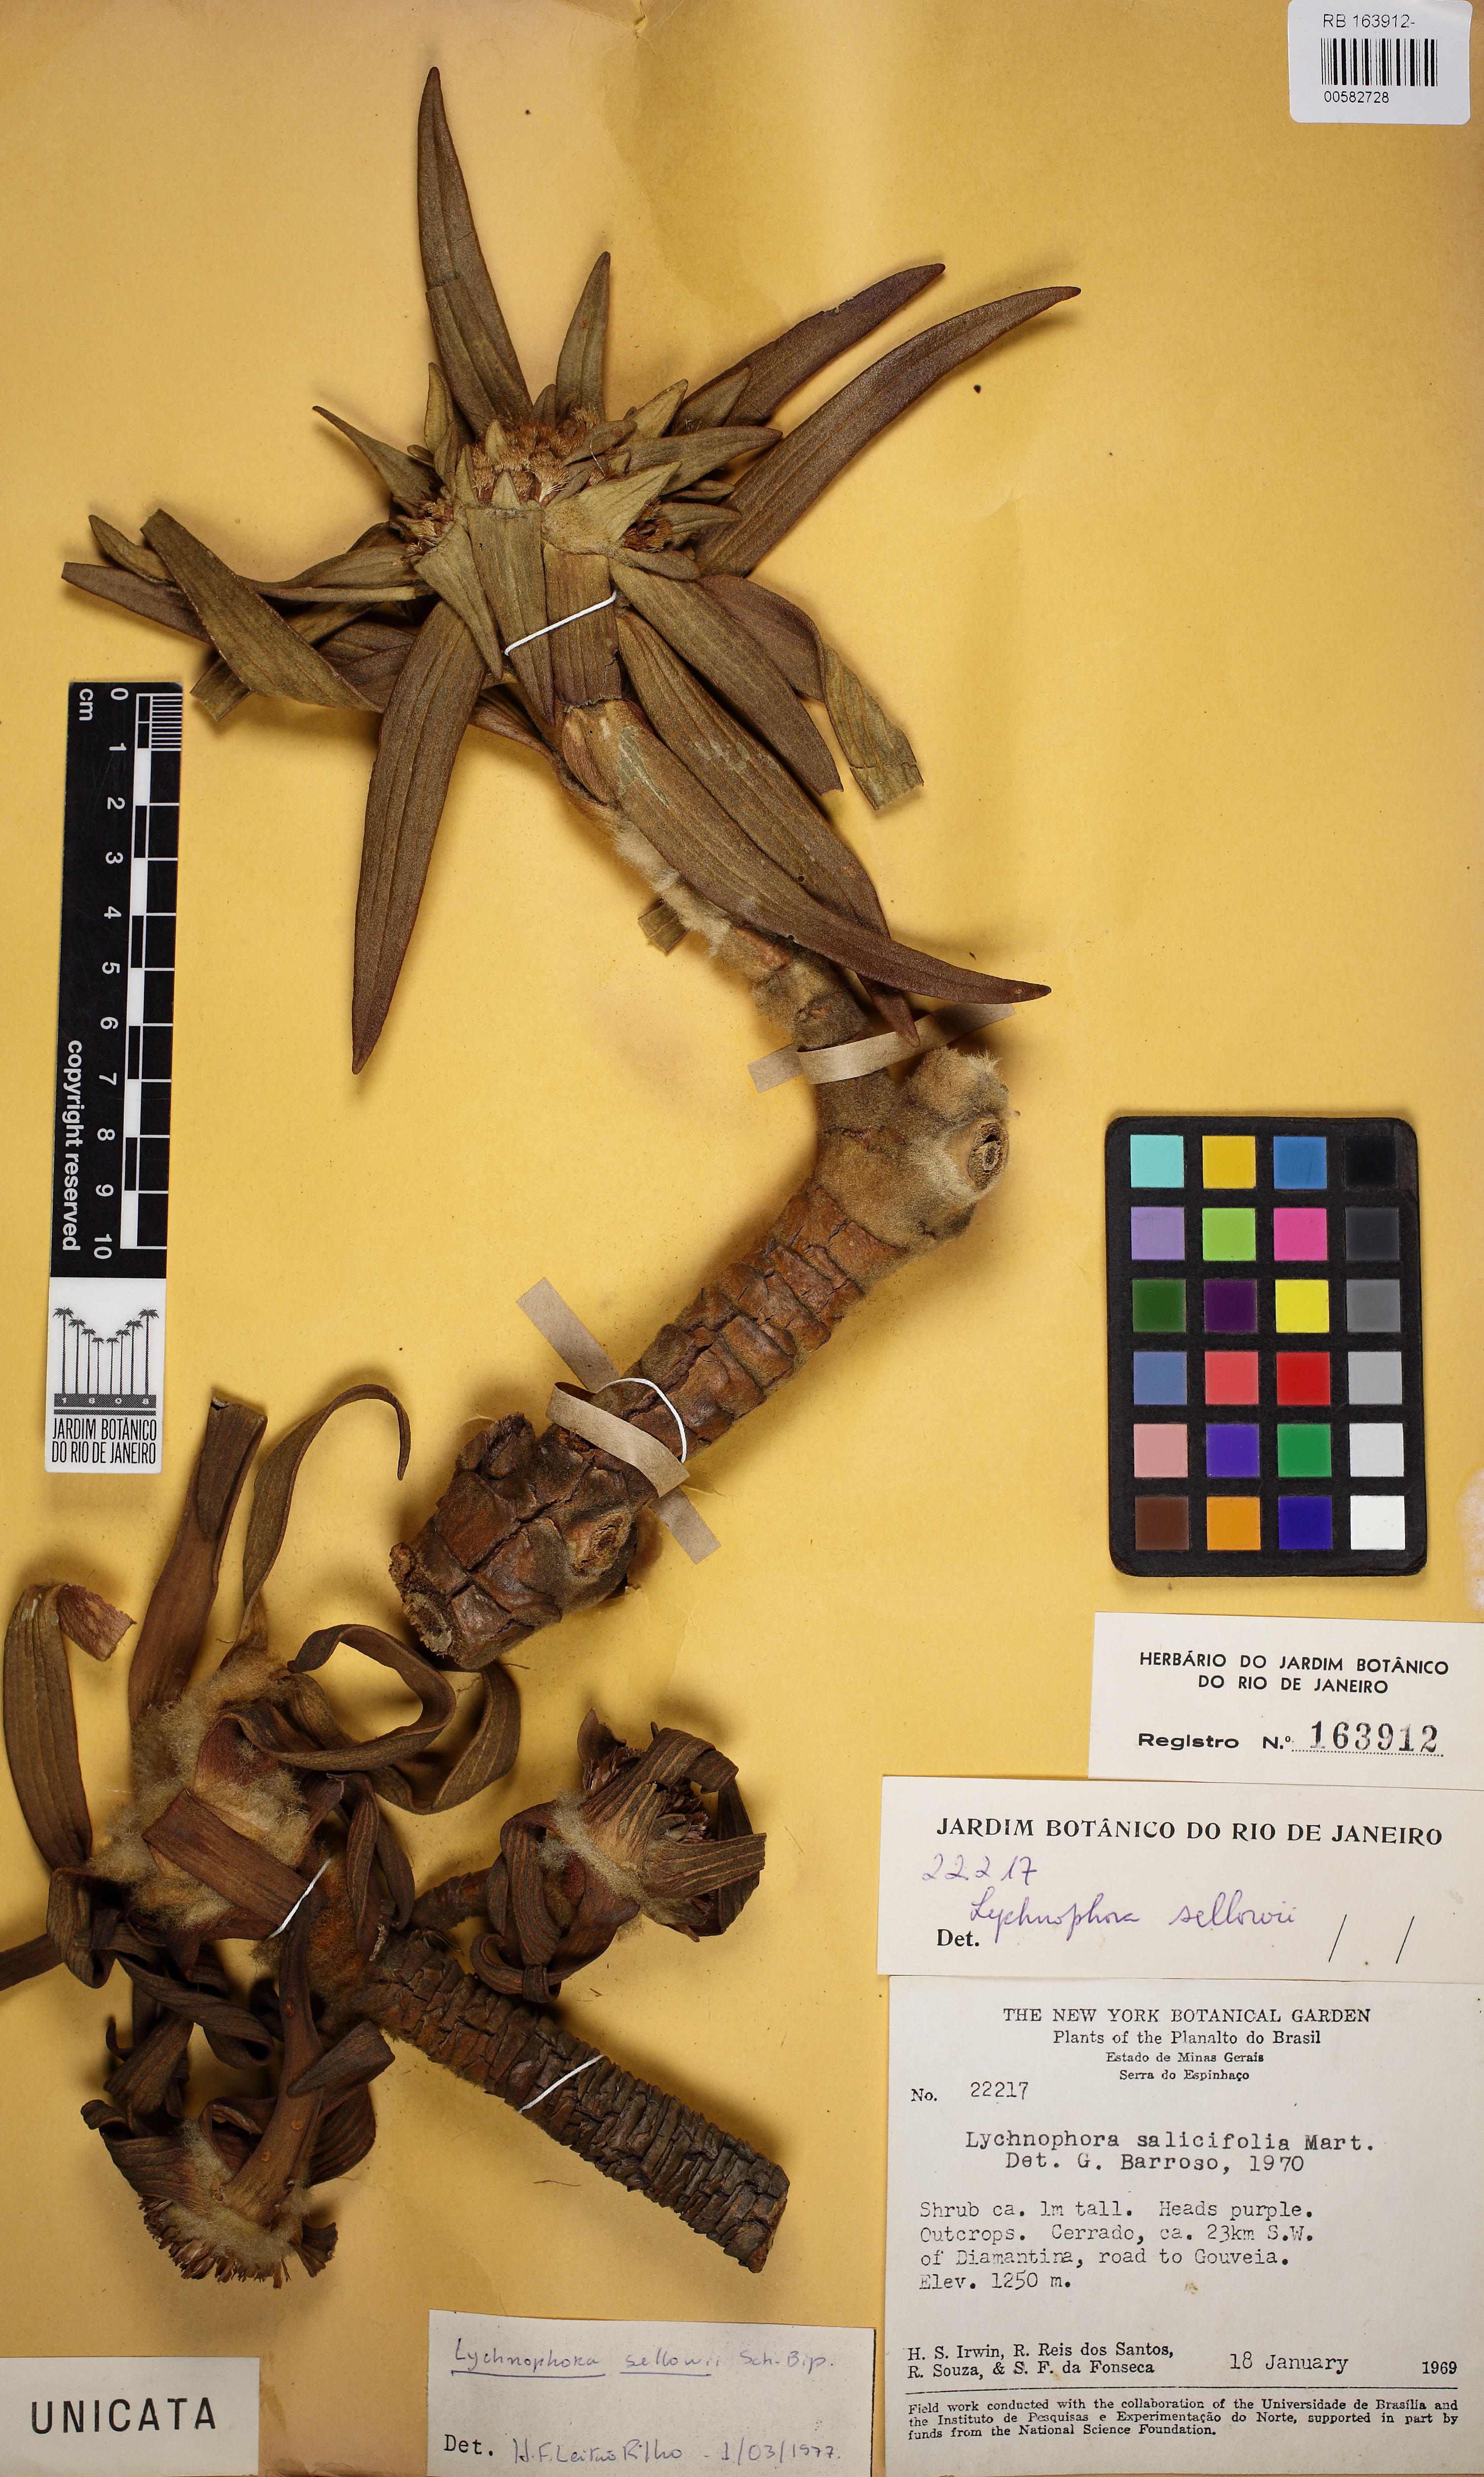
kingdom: Plantae
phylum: Tracheophyta
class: Magnoliopsida
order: Asterales
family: Asteraceae
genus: Lychnophora
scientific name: Lychnophora sellowii
